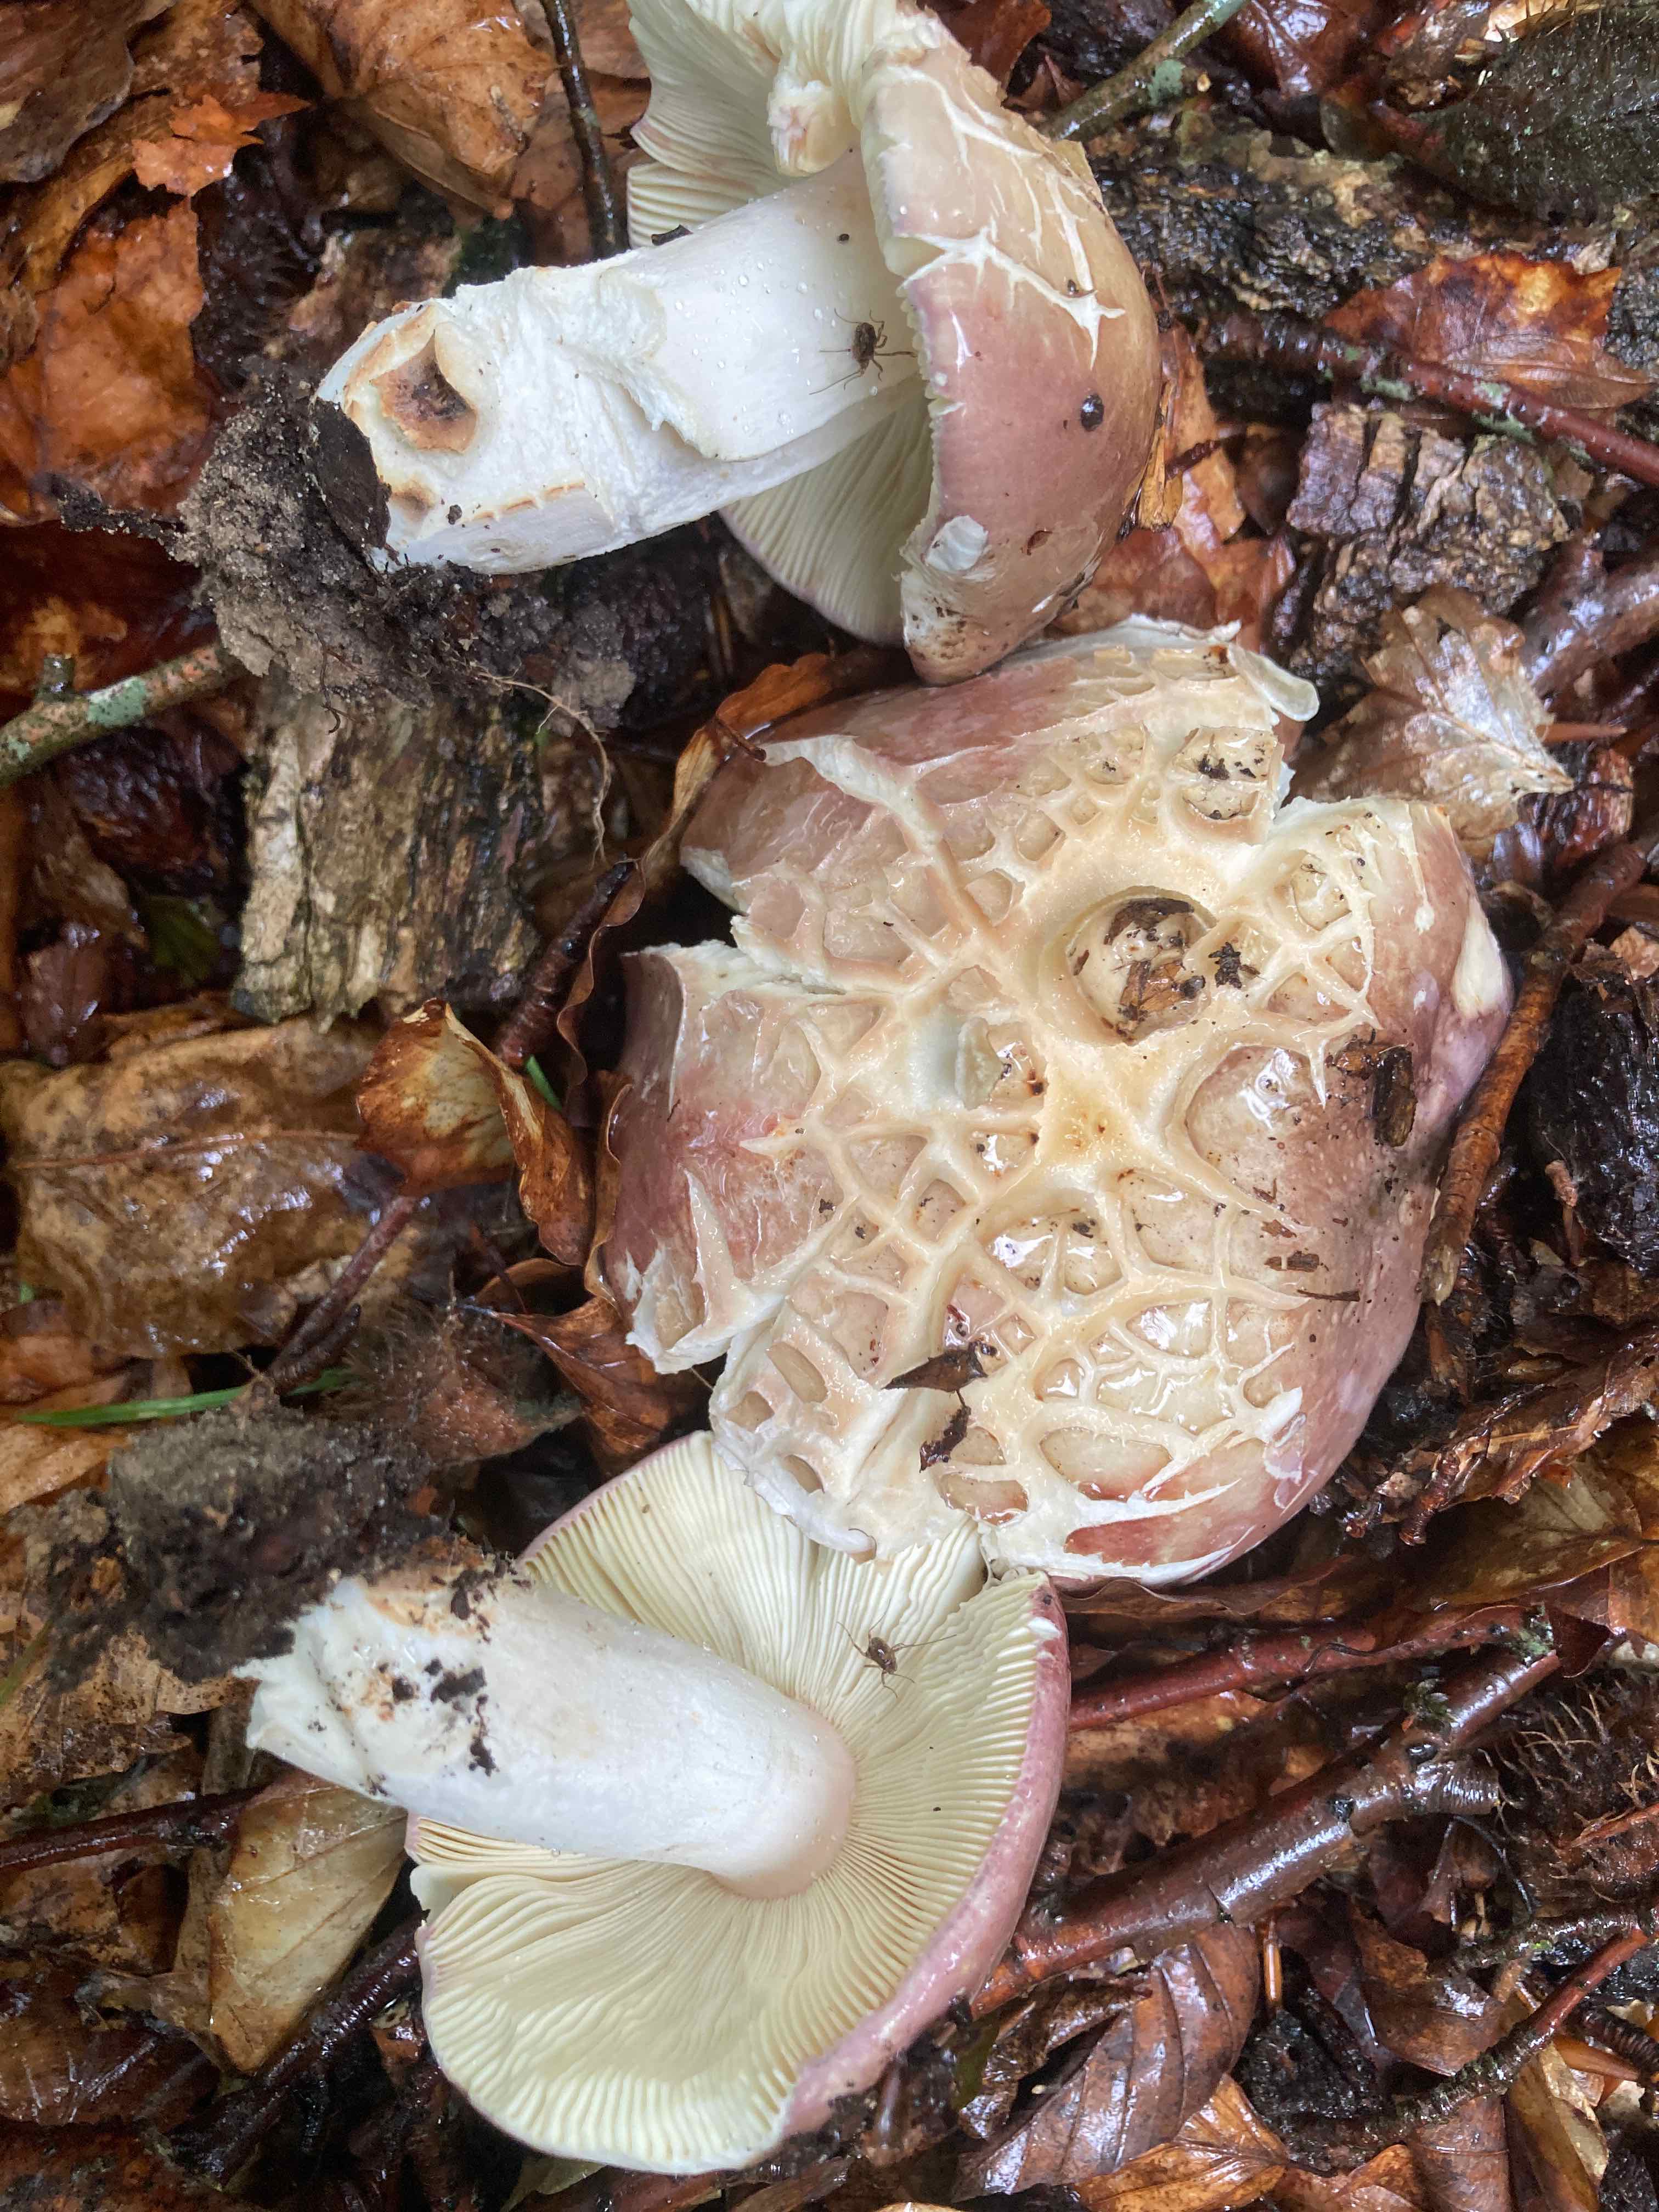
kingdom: Fungi
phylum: Basidiomycota
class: Agaricomycetes
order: Russulales
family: Russulaceae
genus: Russula
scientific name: Russula olivacea
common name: stor skørhat
